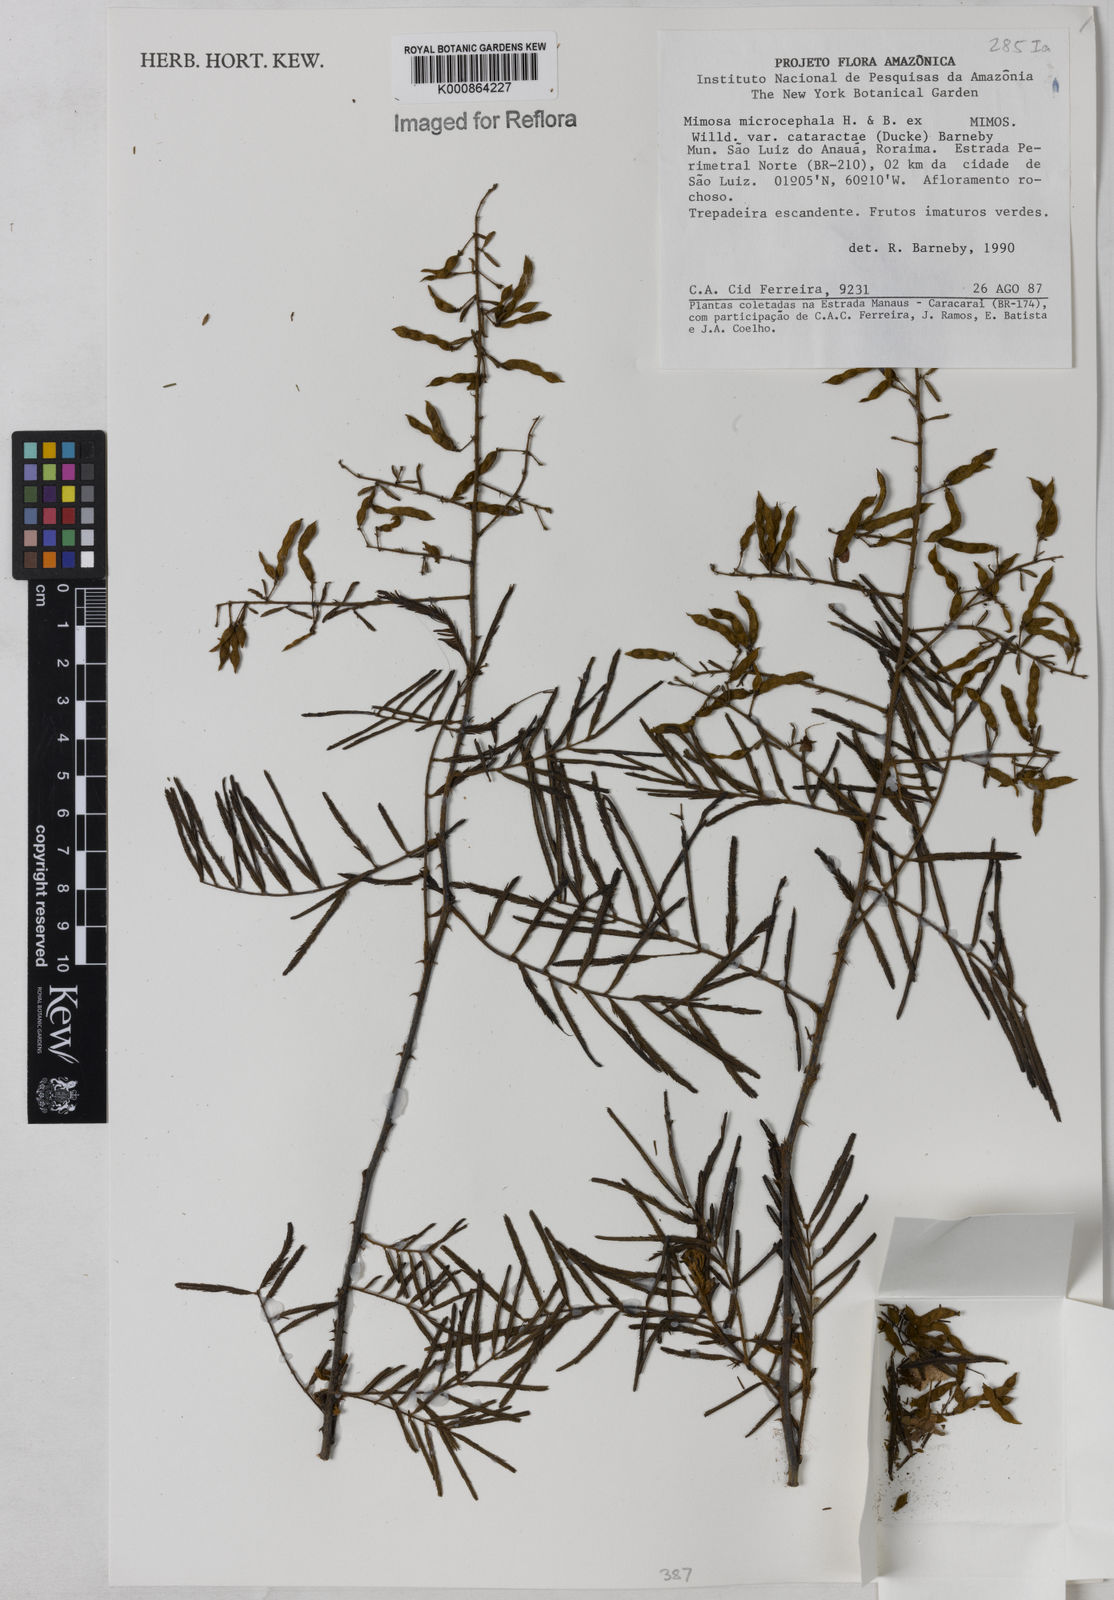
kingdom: Plantae
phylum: Tracheophyta
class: Magnoliopsida
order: Fabales
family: Fabaceae
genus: Mimosa
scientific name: Mimosa microcephala
